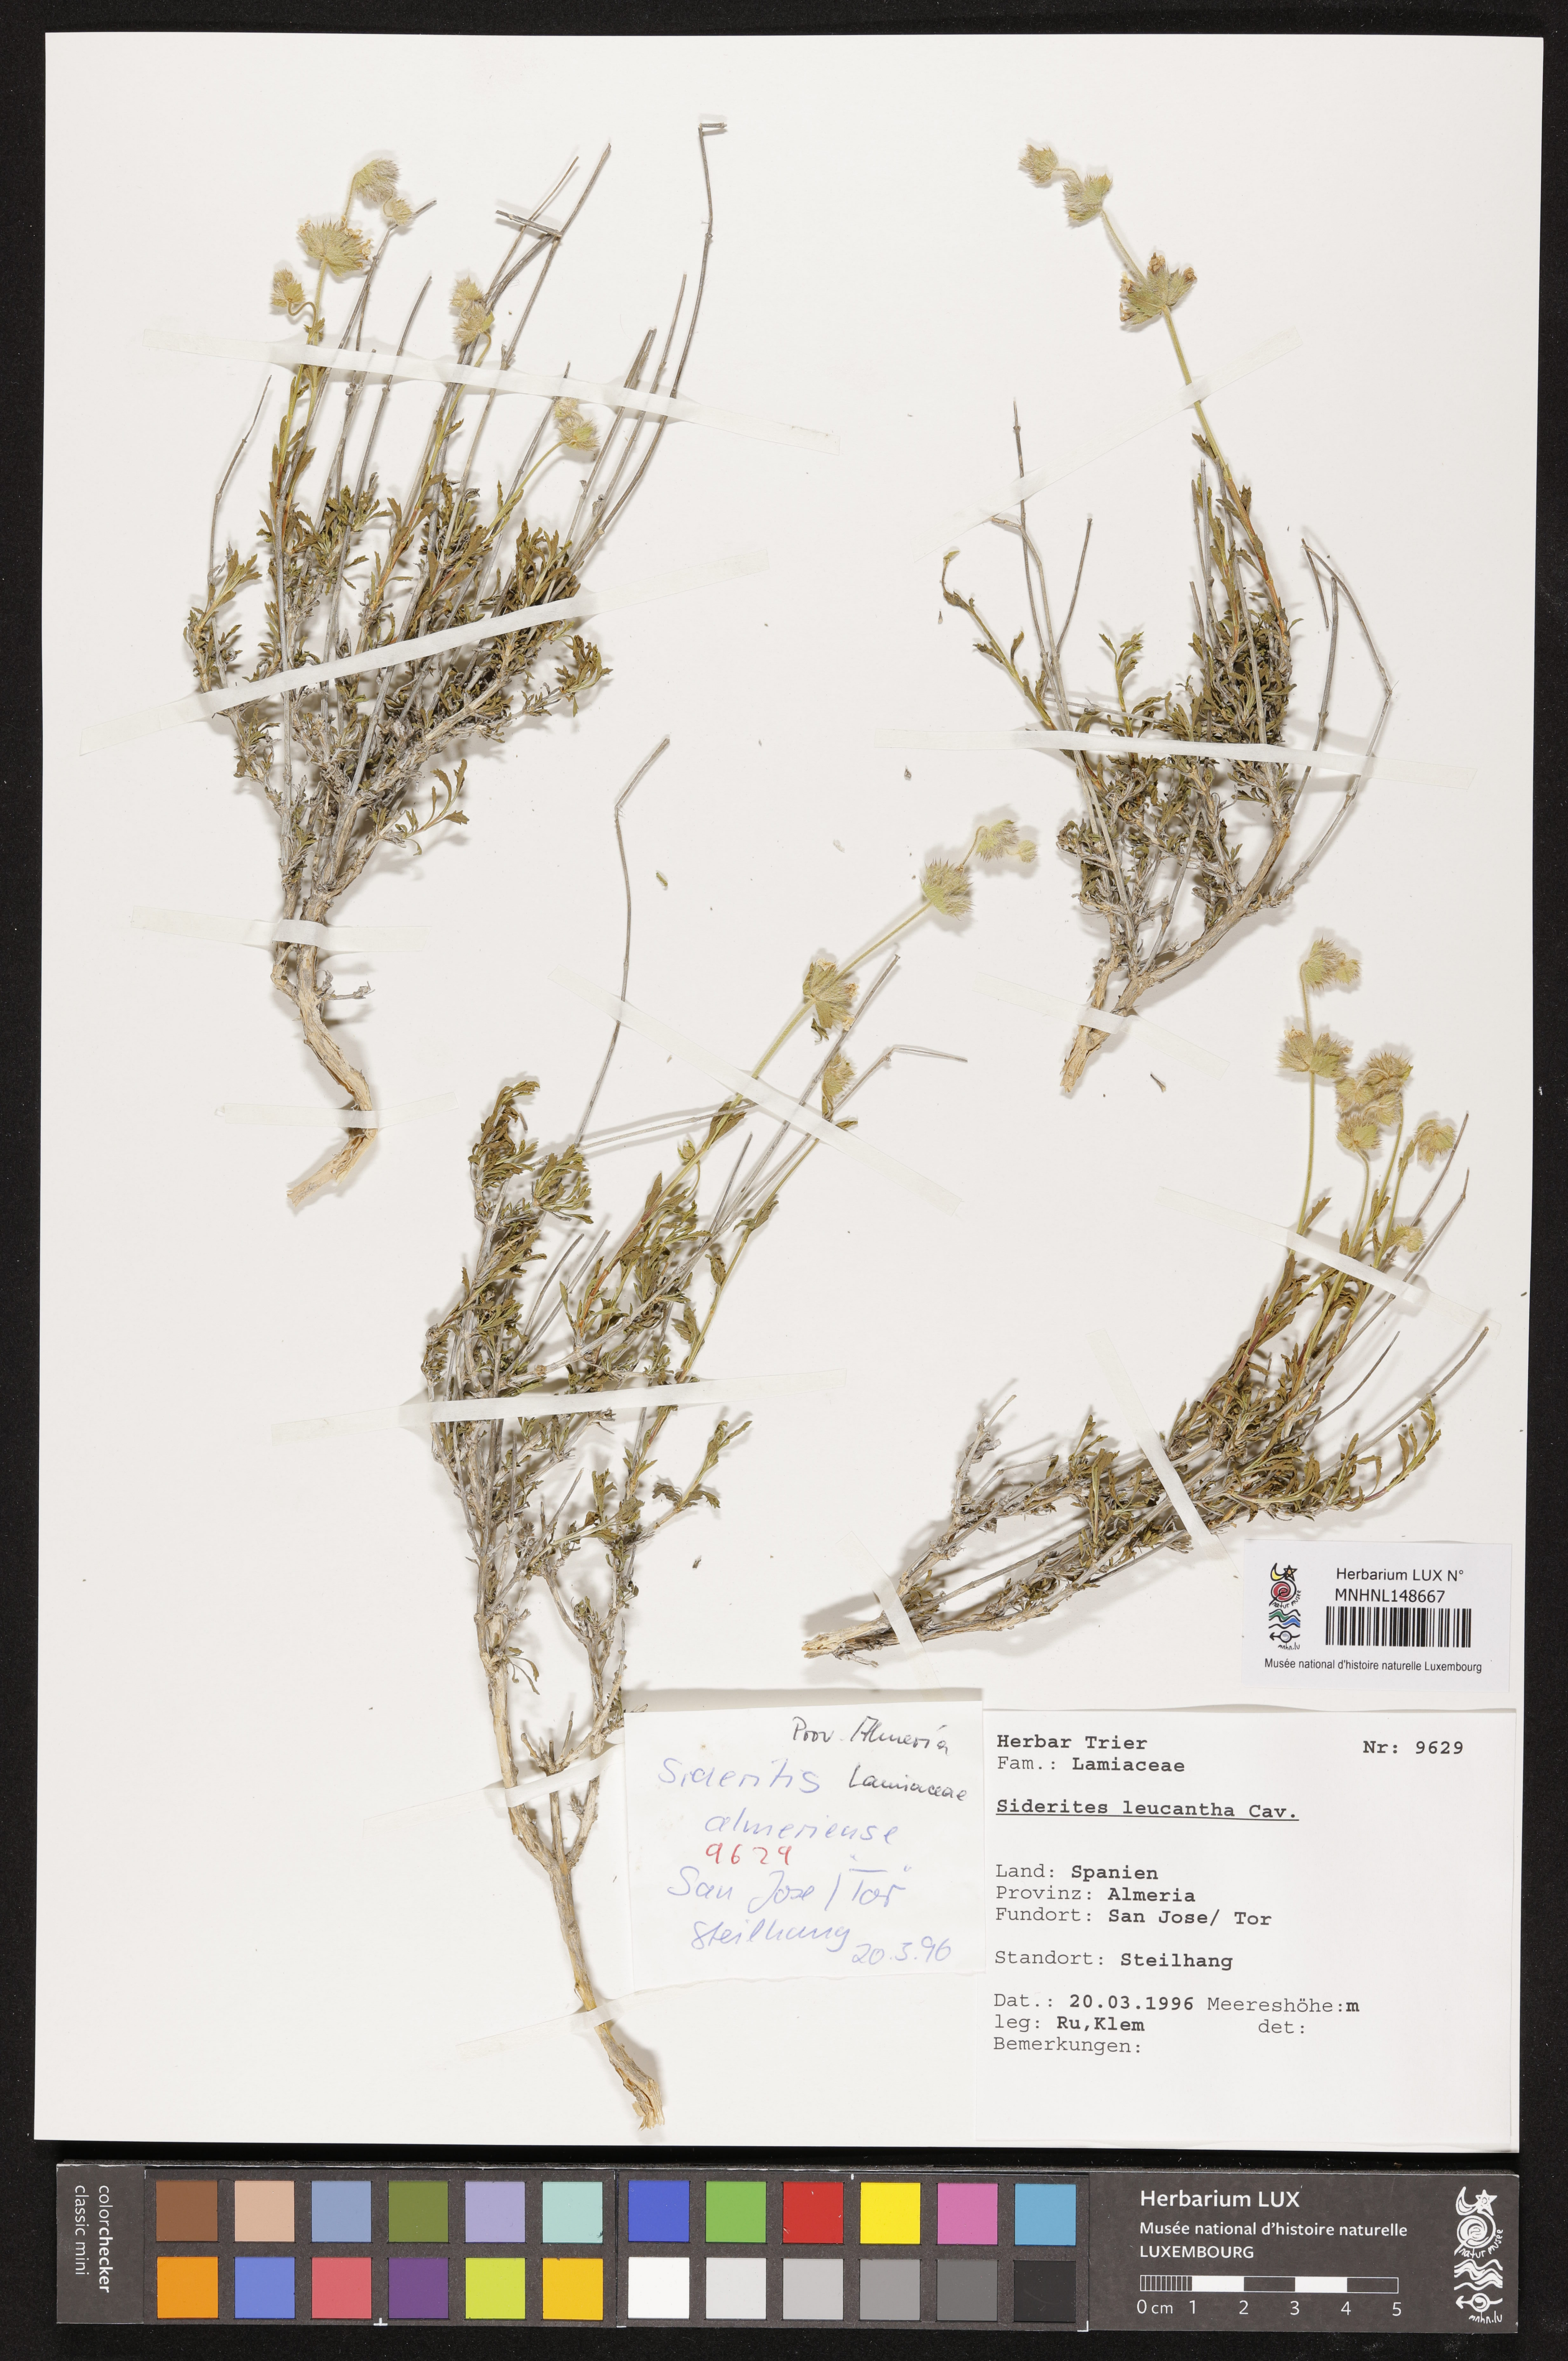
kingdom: Plantae
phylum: Tracheophyta
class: Magnoliopsida
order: Lamiales
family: Lamiaceae
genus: Sideritis
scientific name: Sideritis leucantha
